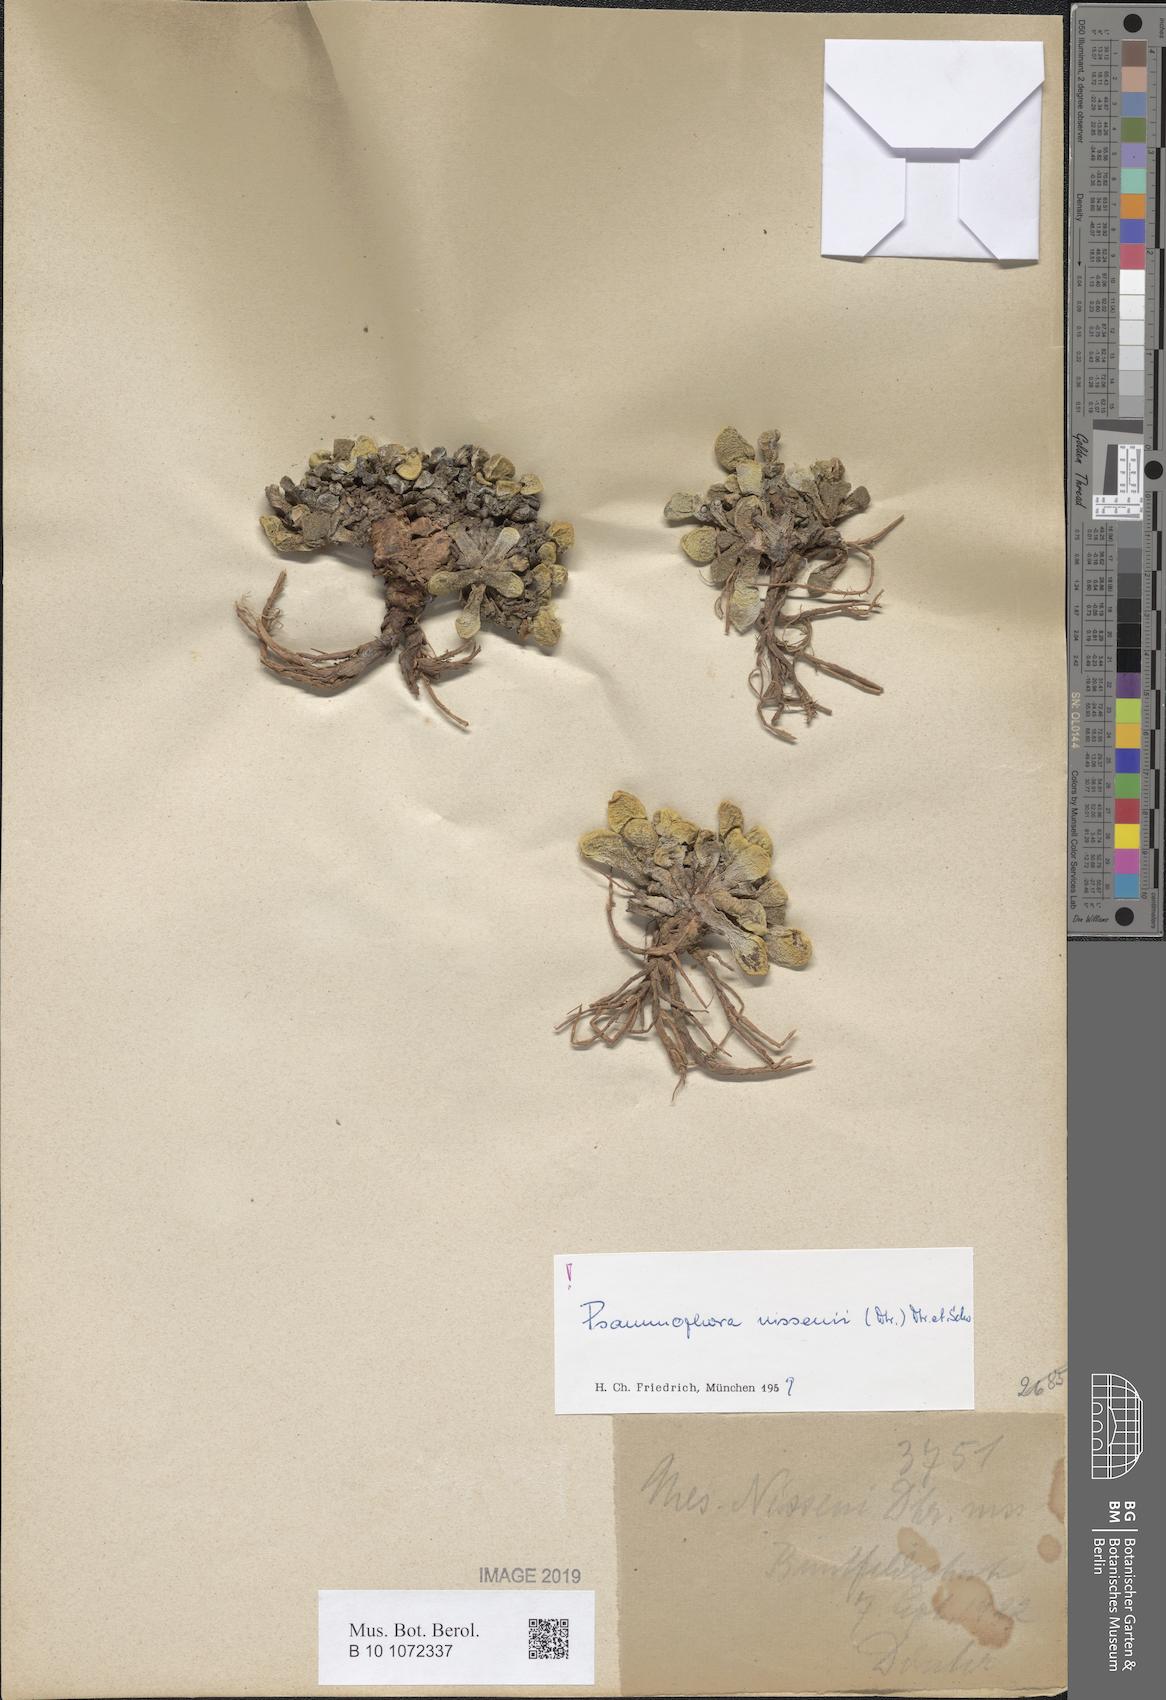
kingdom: Plantae
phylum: Tracheophyta
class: Magnoliopsida
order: Caryophyllales
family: Aizoaceae
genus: Psammophora
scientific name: Psammophora nissenii
